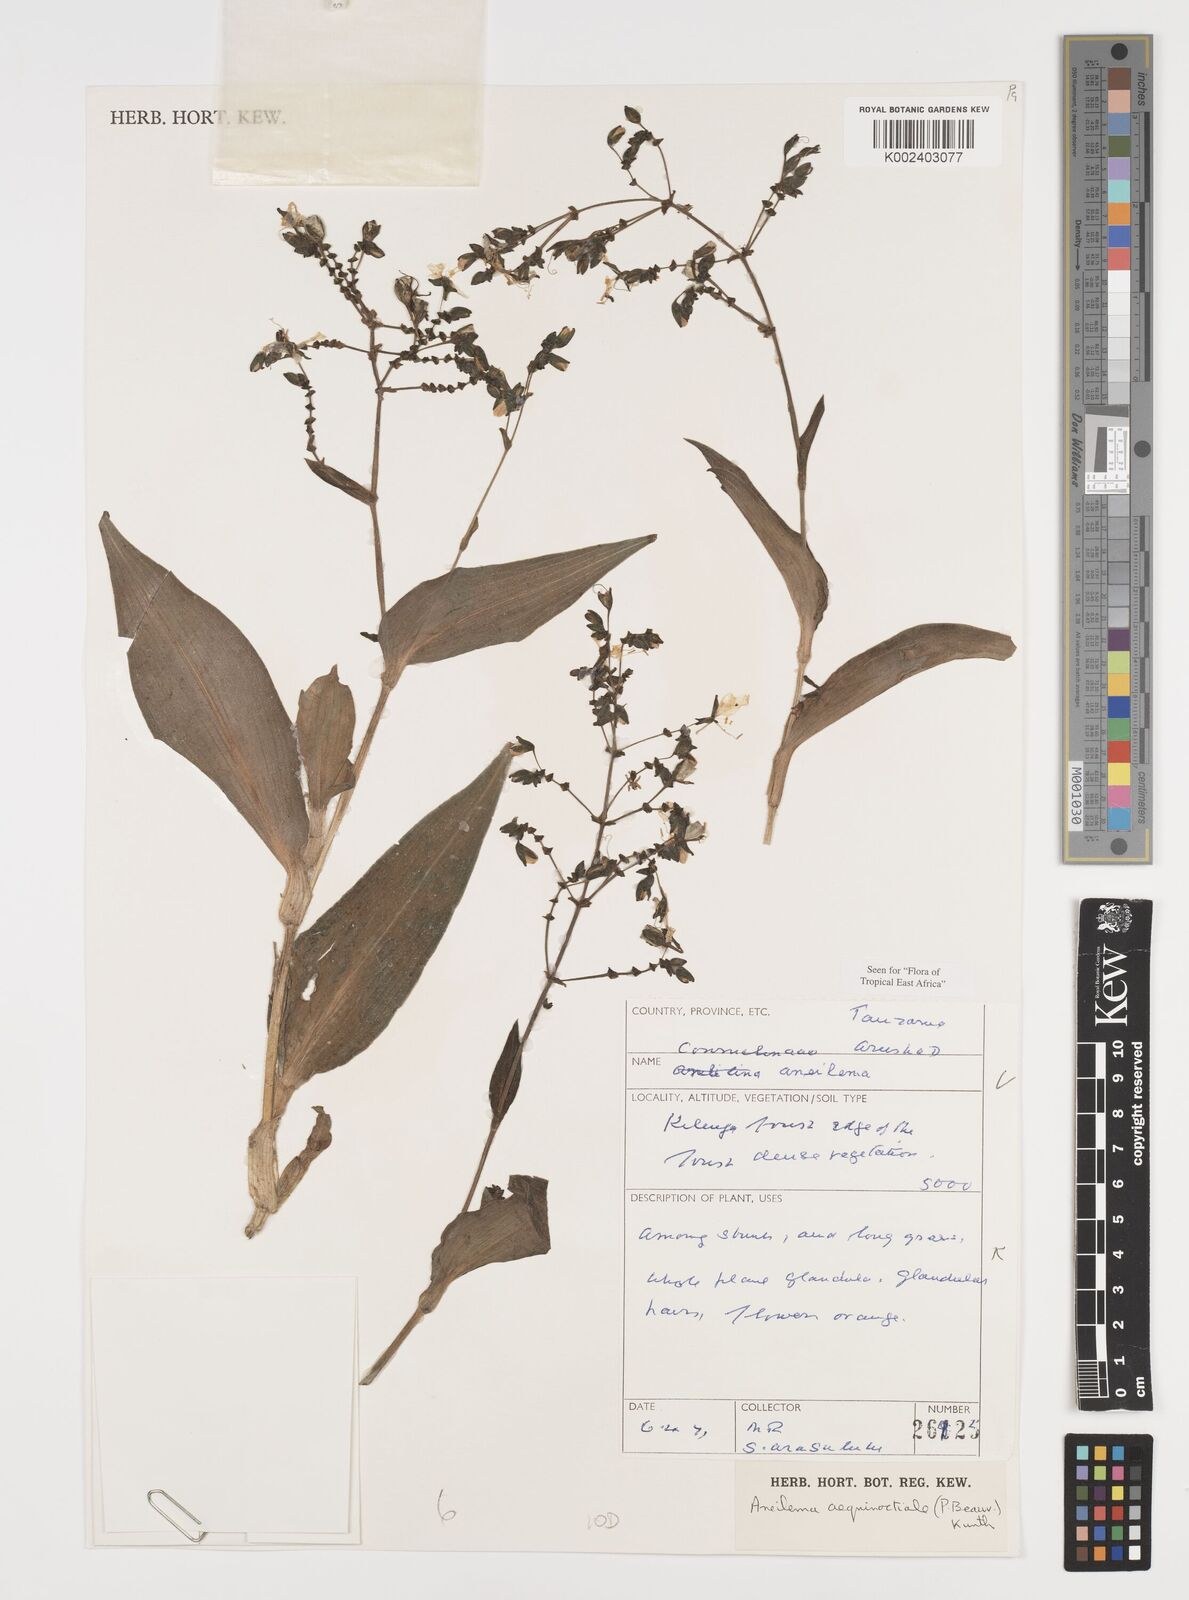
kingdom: Plantae
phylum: Tracheophyta
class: Liliopsida
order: Commelinales
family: Commelinaceae
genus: Aneilema
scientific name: Aneilema aequinoctiale
